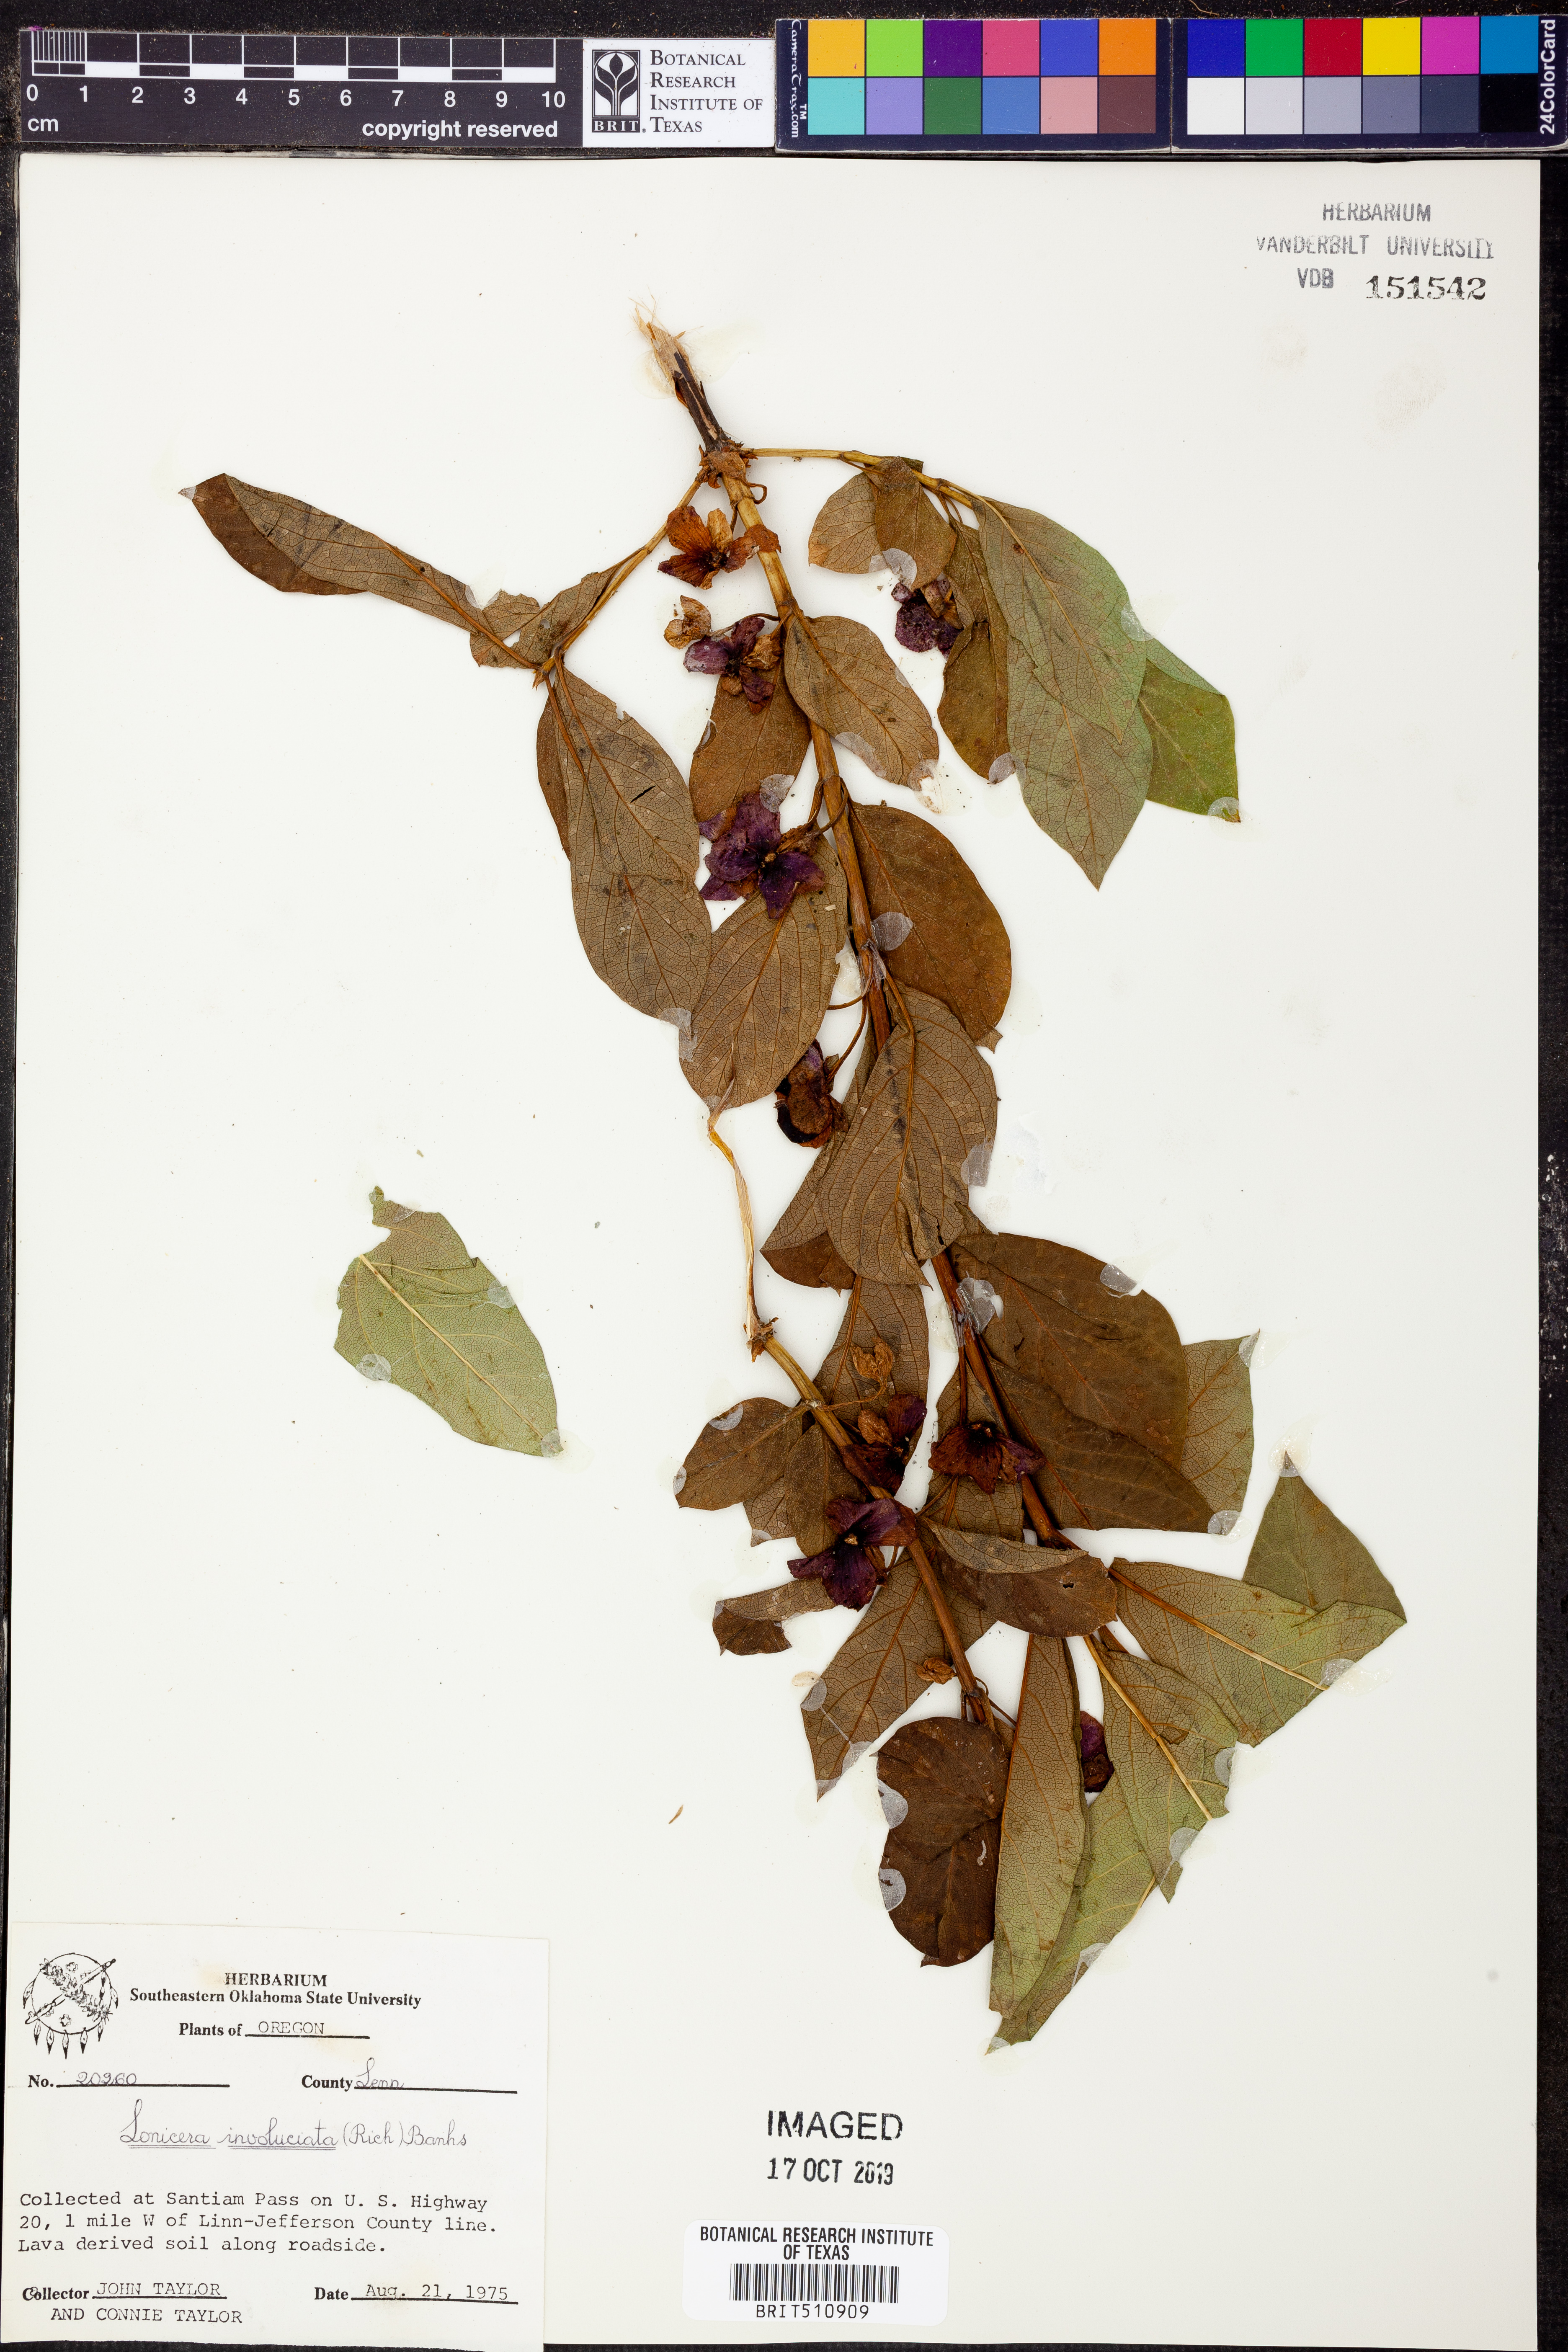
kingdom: Plantae
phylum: Tracheophyta
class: Magnoliopsida
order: Dipsacales
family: Caprifoliaceae
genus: Lonicera
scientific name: Lonicera involucrata
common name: Californian honeysuckle
